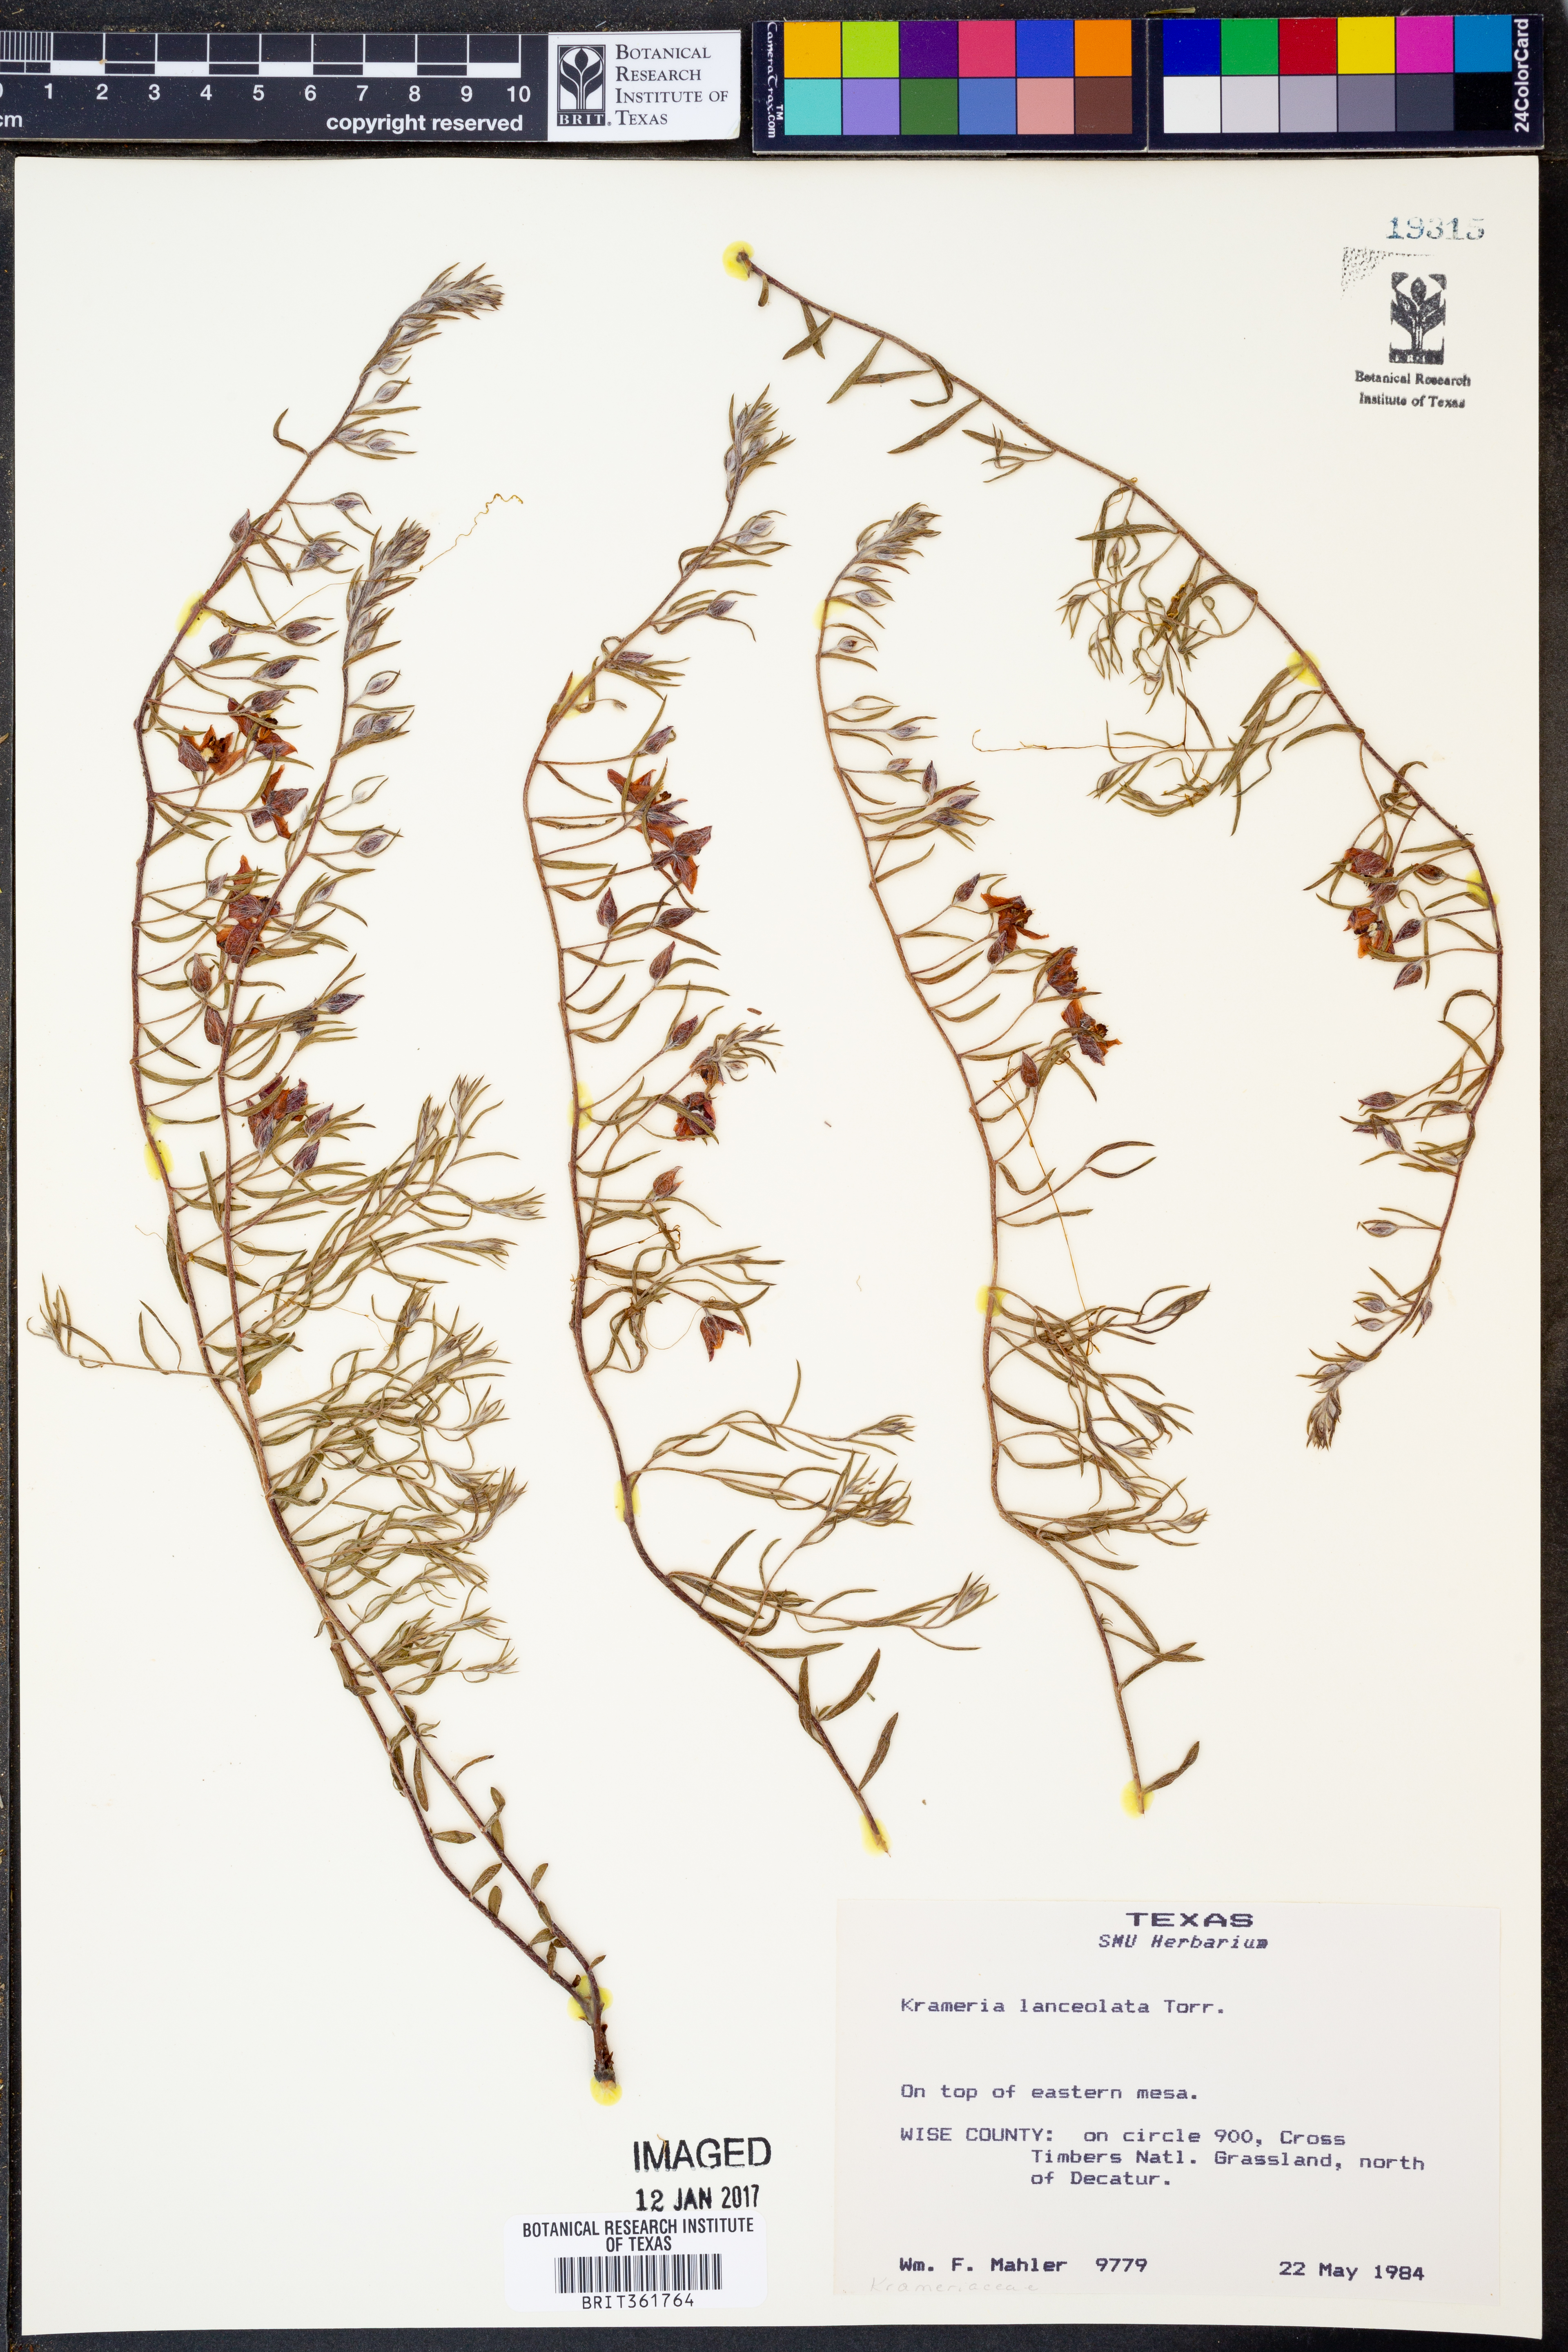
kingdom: Plantae
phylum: Tracheophyta
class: Magnoliopsida
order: Zygophyllales
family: Krameriaceae
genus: Krameria
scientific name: Krameria lanceolata
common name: Ratany
